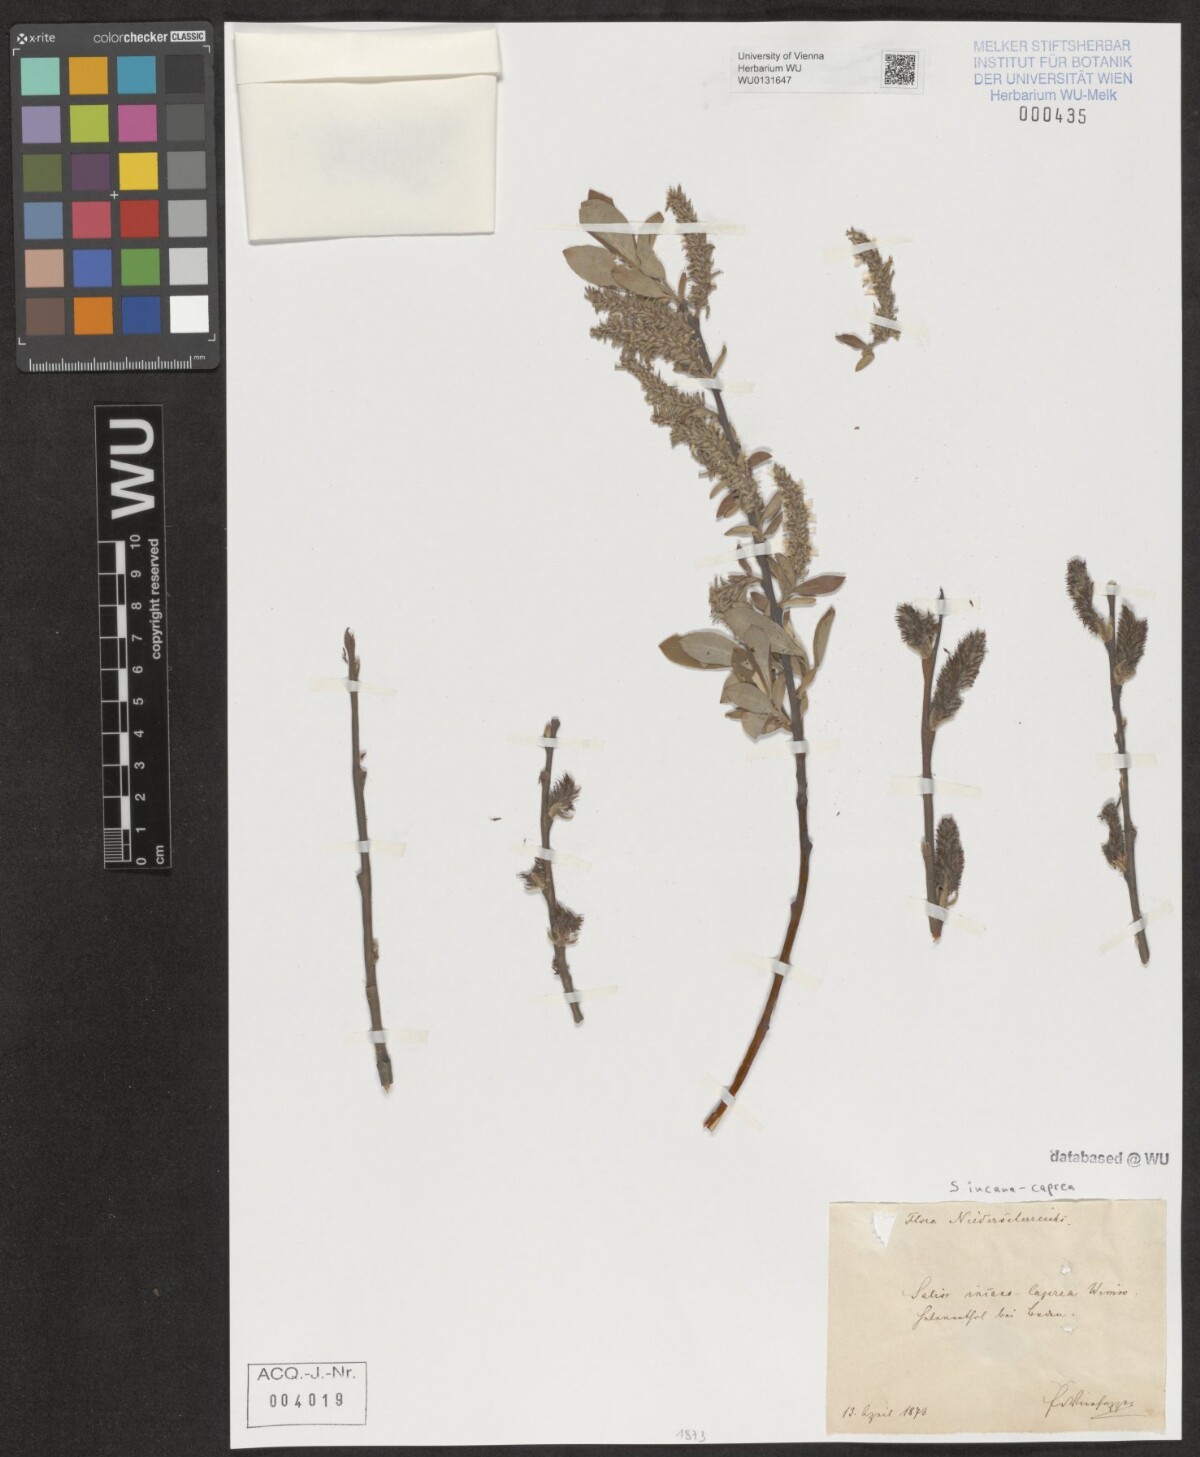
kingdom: Plantae
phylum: Tracheophyta
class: Magnoliopsida
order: Malpighiales
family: Salicaceae
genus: Salix
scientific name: Salix
